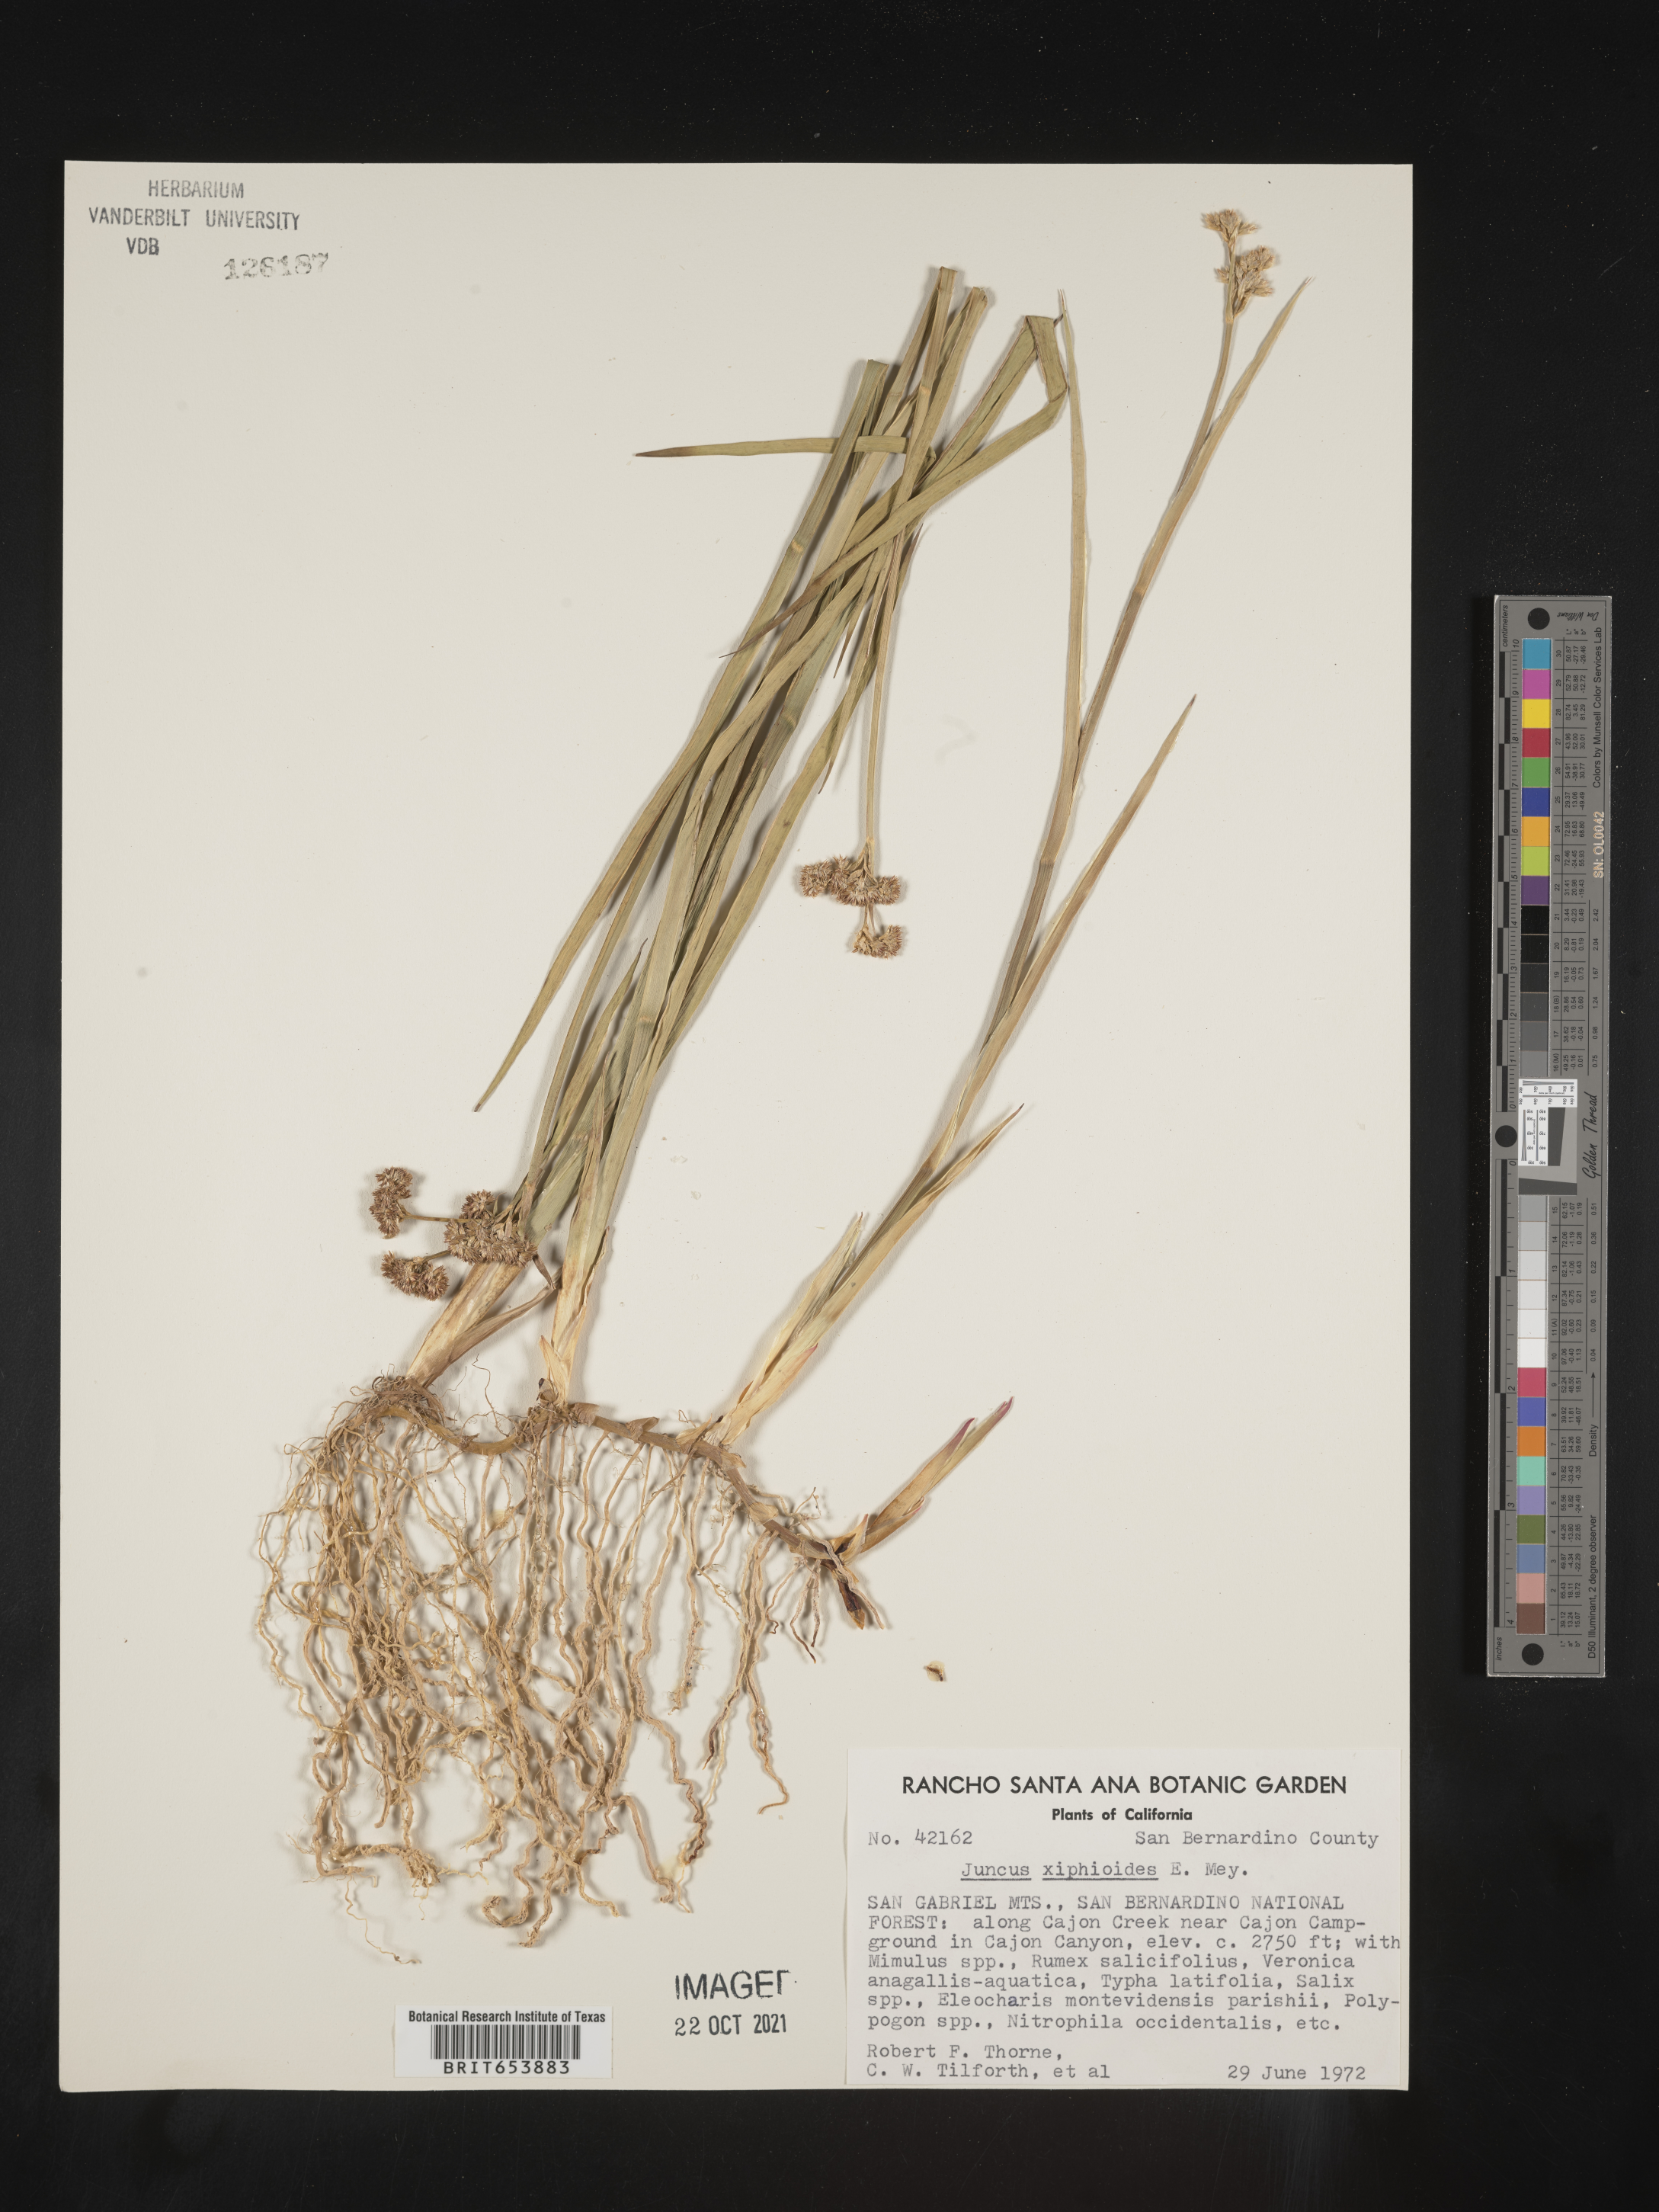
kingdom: Plantae
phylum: Tracheophyta
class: Liliopsida
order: Poales
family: Juncaceae
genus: Juncus
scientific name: Juncus xiphioides
